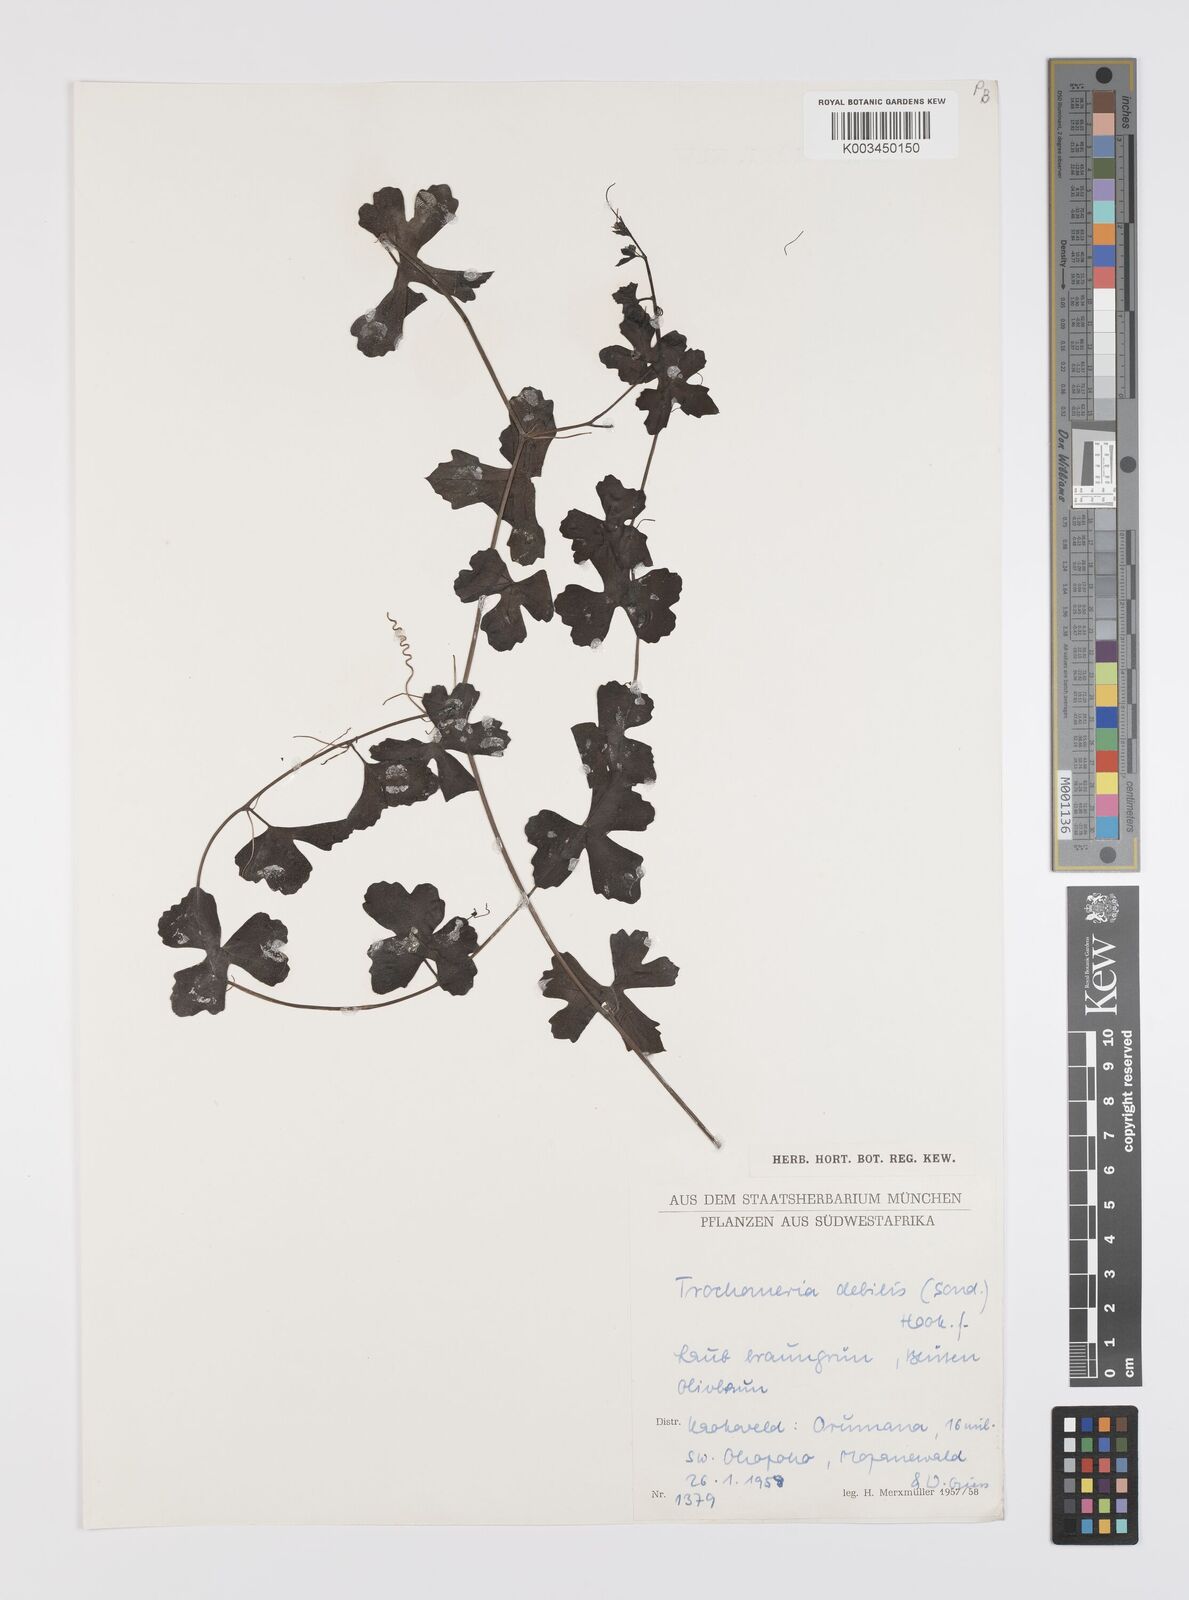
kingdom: Plantae
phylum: Tracheophyta
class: Magnoliopsida
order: Cucurbitales
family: Cucurbitaceae
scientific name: Cucurbitaceae
